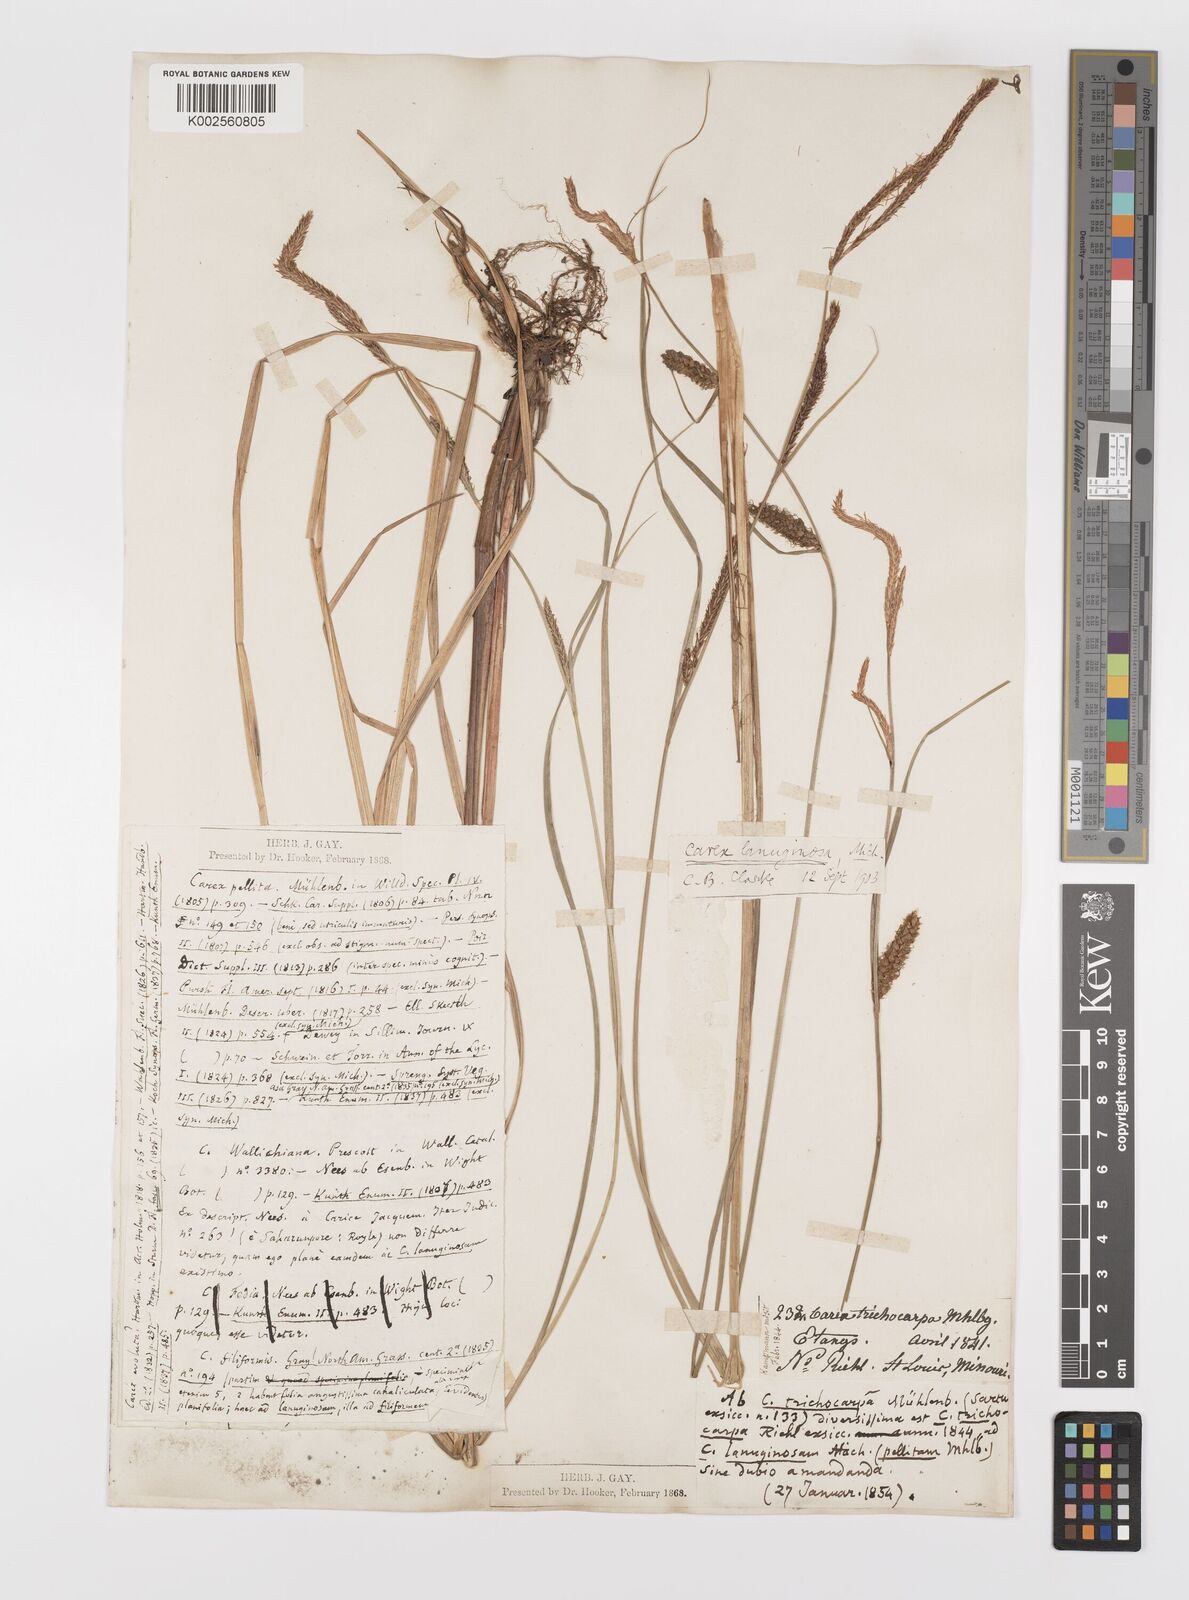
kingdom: Plantae
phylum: Tracheophyta
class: Liliopsida
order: Poales
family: Cyperaceae
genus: Carex
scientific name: Carex lasiocarpa
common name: Slender sedge
